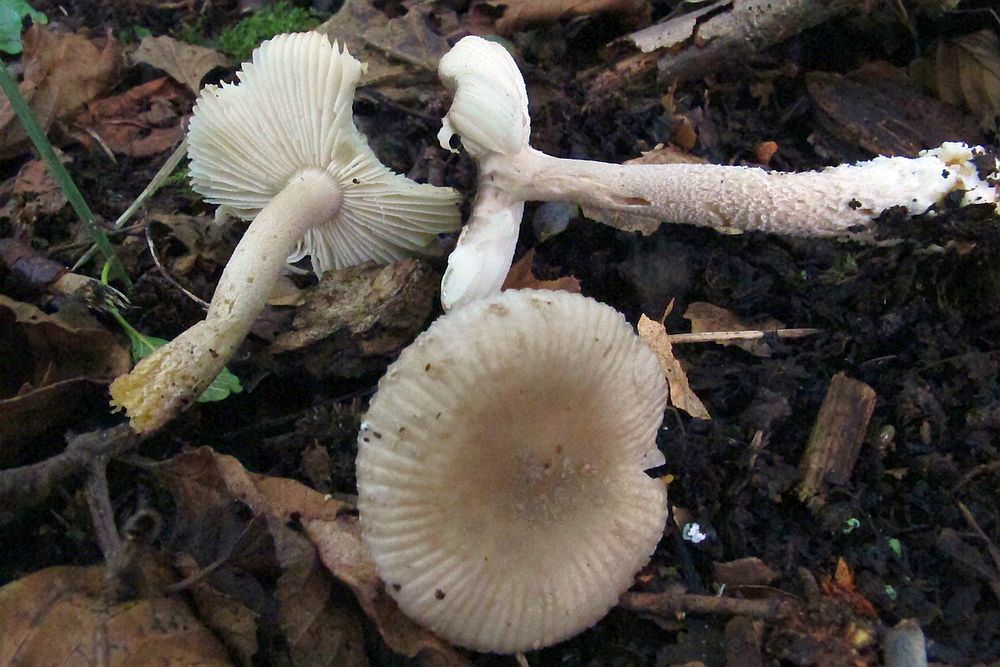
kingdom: Fungi
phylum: Basidiomycota
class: Agaricomycetes
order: Agaricales
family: Amanitaceae
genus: Amanita
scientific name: Amanita friabilis
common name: grynet kam-fluesvamp
